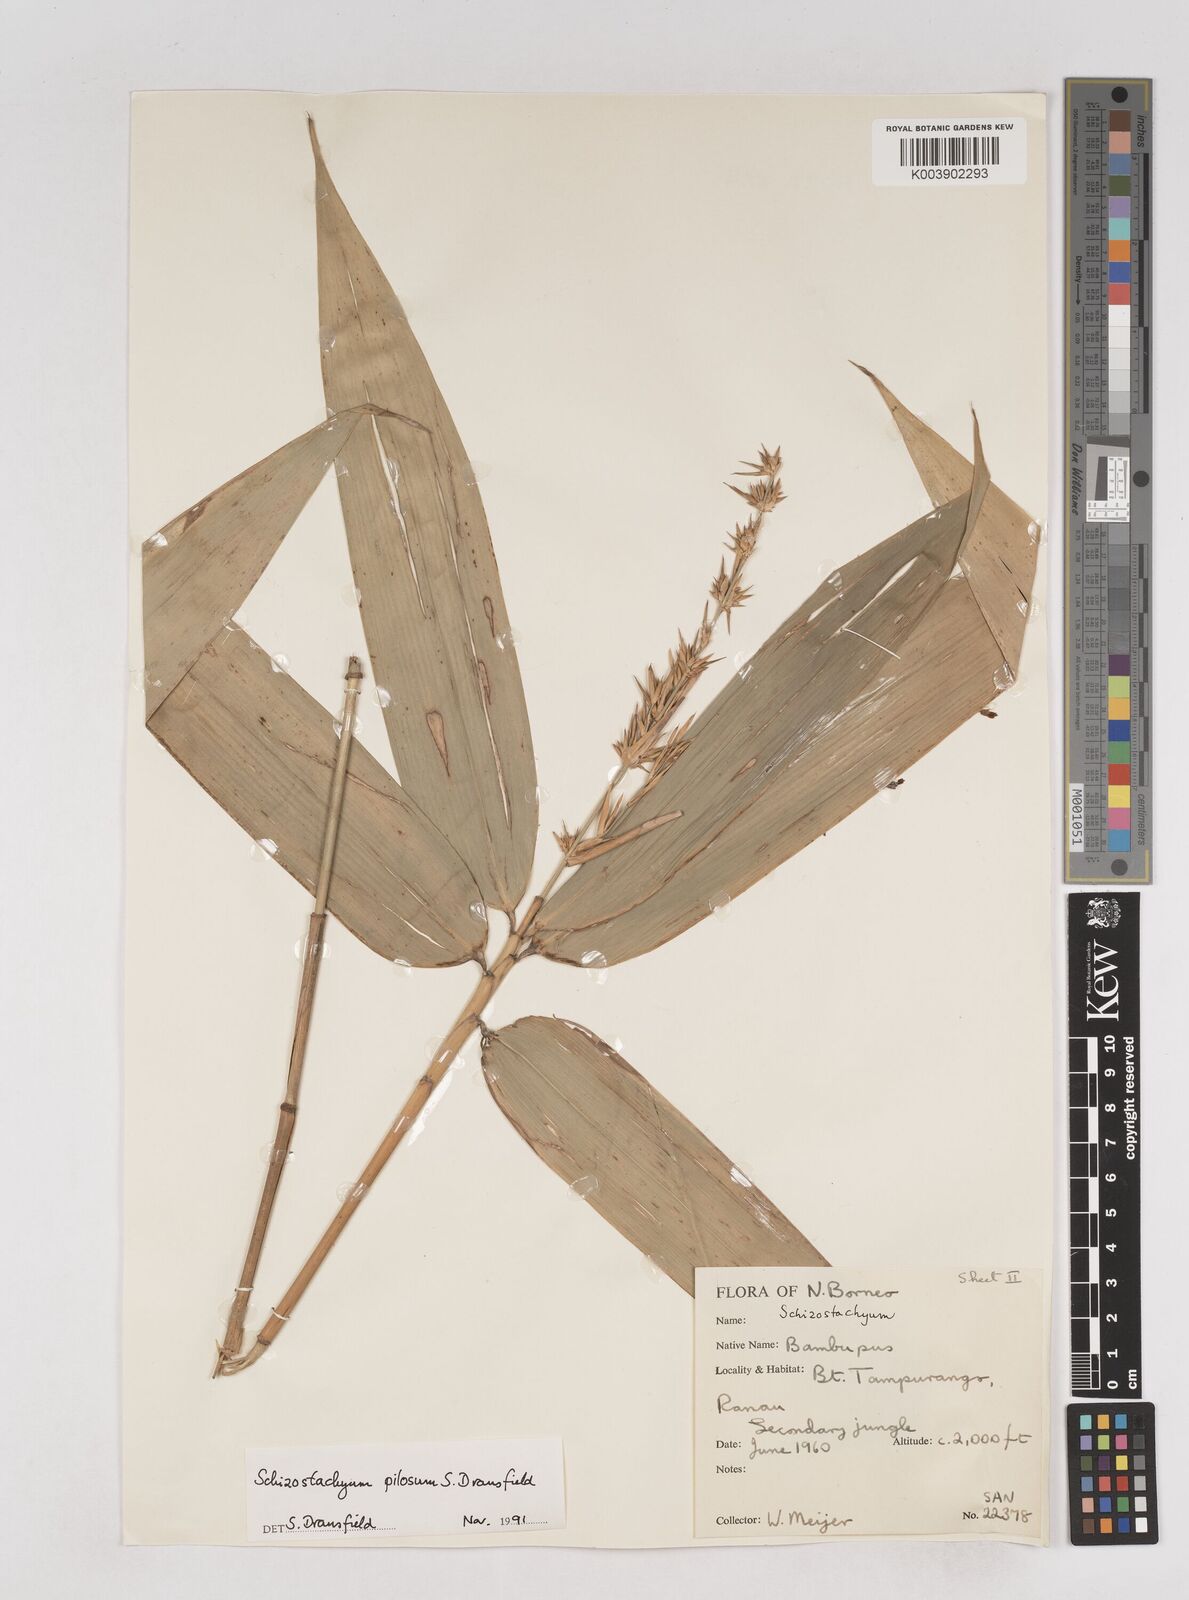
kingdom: Plantae
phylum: Tracheophyta
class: Liliopsida
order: Poales
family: Poaceae
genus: Schizostachyum
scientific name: Schizostachyum pilosum
